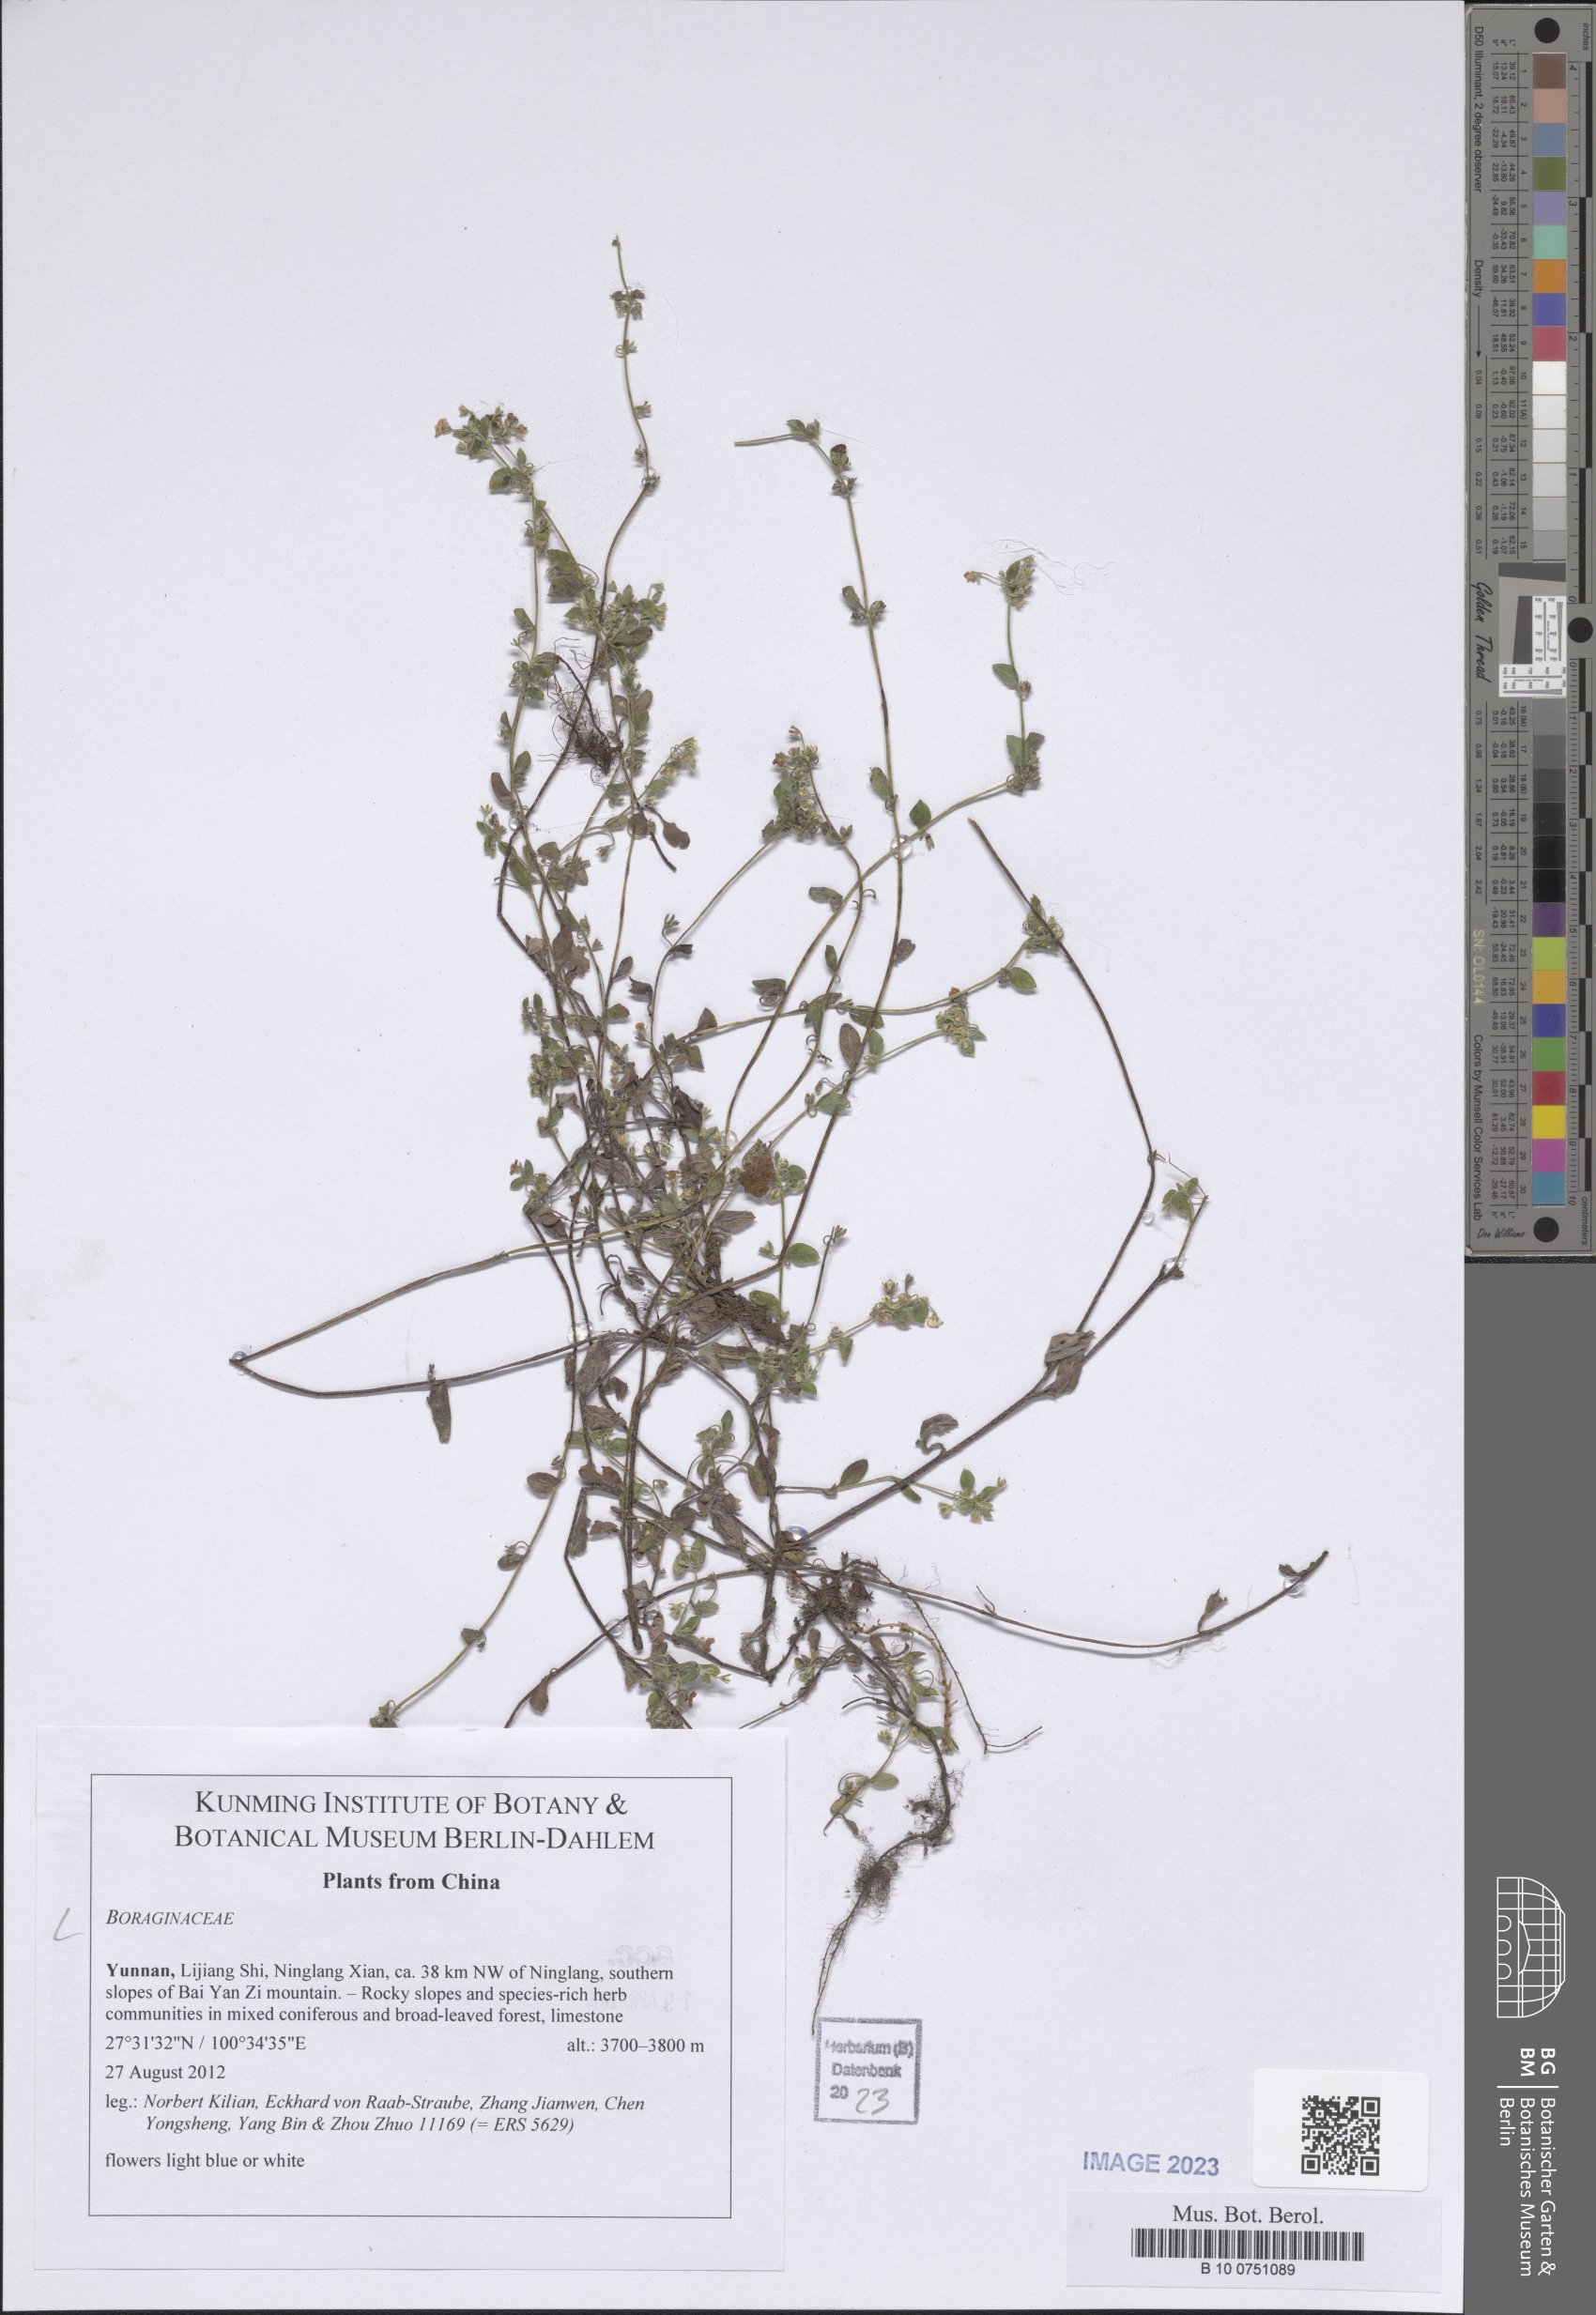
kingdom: Plantae
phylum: Tracheophyta
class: Magnoliopsida
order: Boraginales
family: Boraginaceae
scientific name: Boraginaceae
